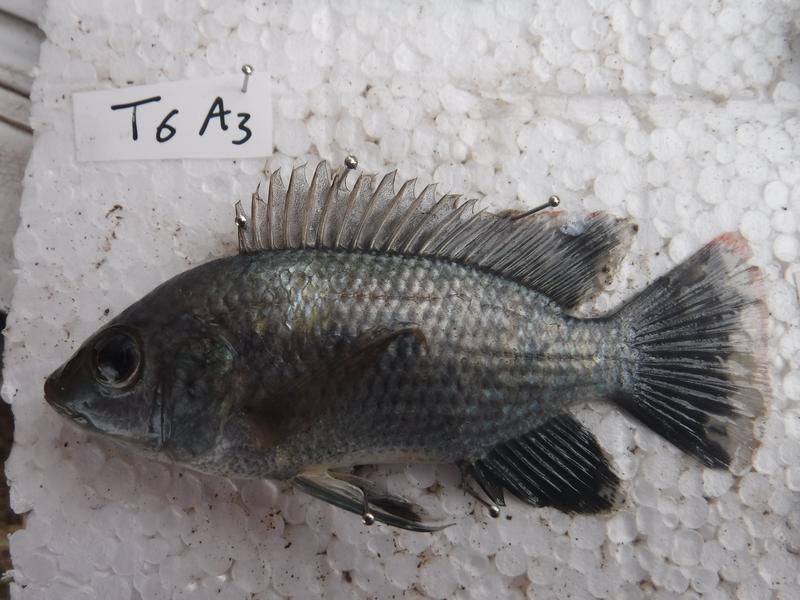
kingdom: Animalia
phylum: Chordata
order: Perciformes
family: Cichlidae
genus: Oreochromis
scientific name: Oreochromis urolepis
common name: Wami tilapia
